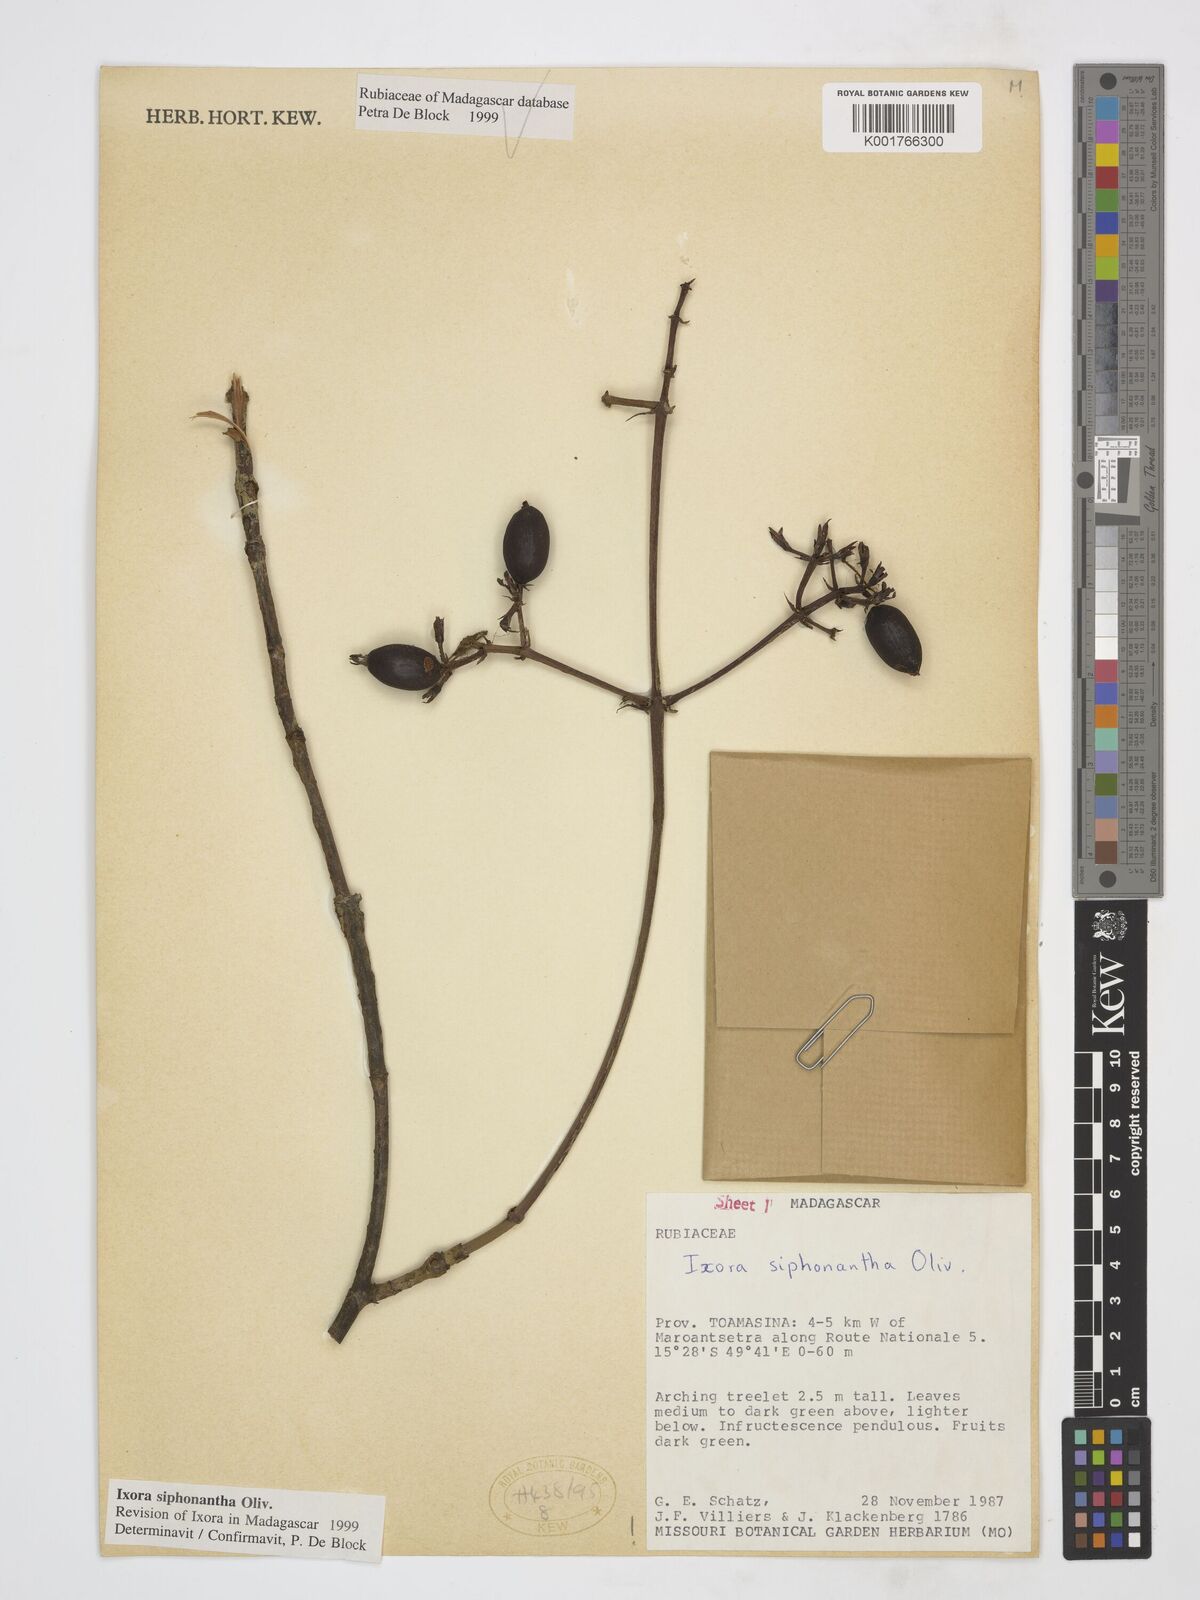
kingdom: Plantae
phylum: Tracheophyta
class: Magnoliopsida
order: Gentianales
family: Rubiaceae
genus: Ixora
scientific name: Ixora siphonantha
